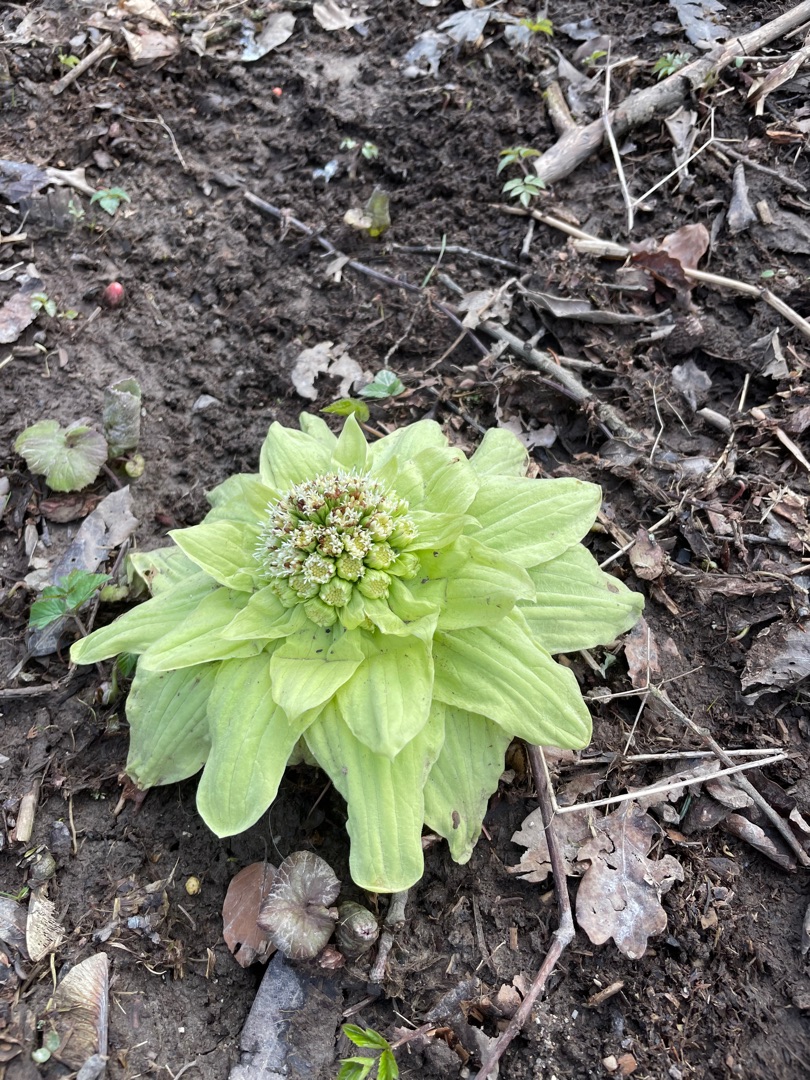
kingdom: Plantae
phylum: Tracheophyta
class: Magnoliopsida
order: Asterales
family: Asteraceae
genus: Petasites
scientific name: Petasites japonicus
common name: Japansk hestehov
